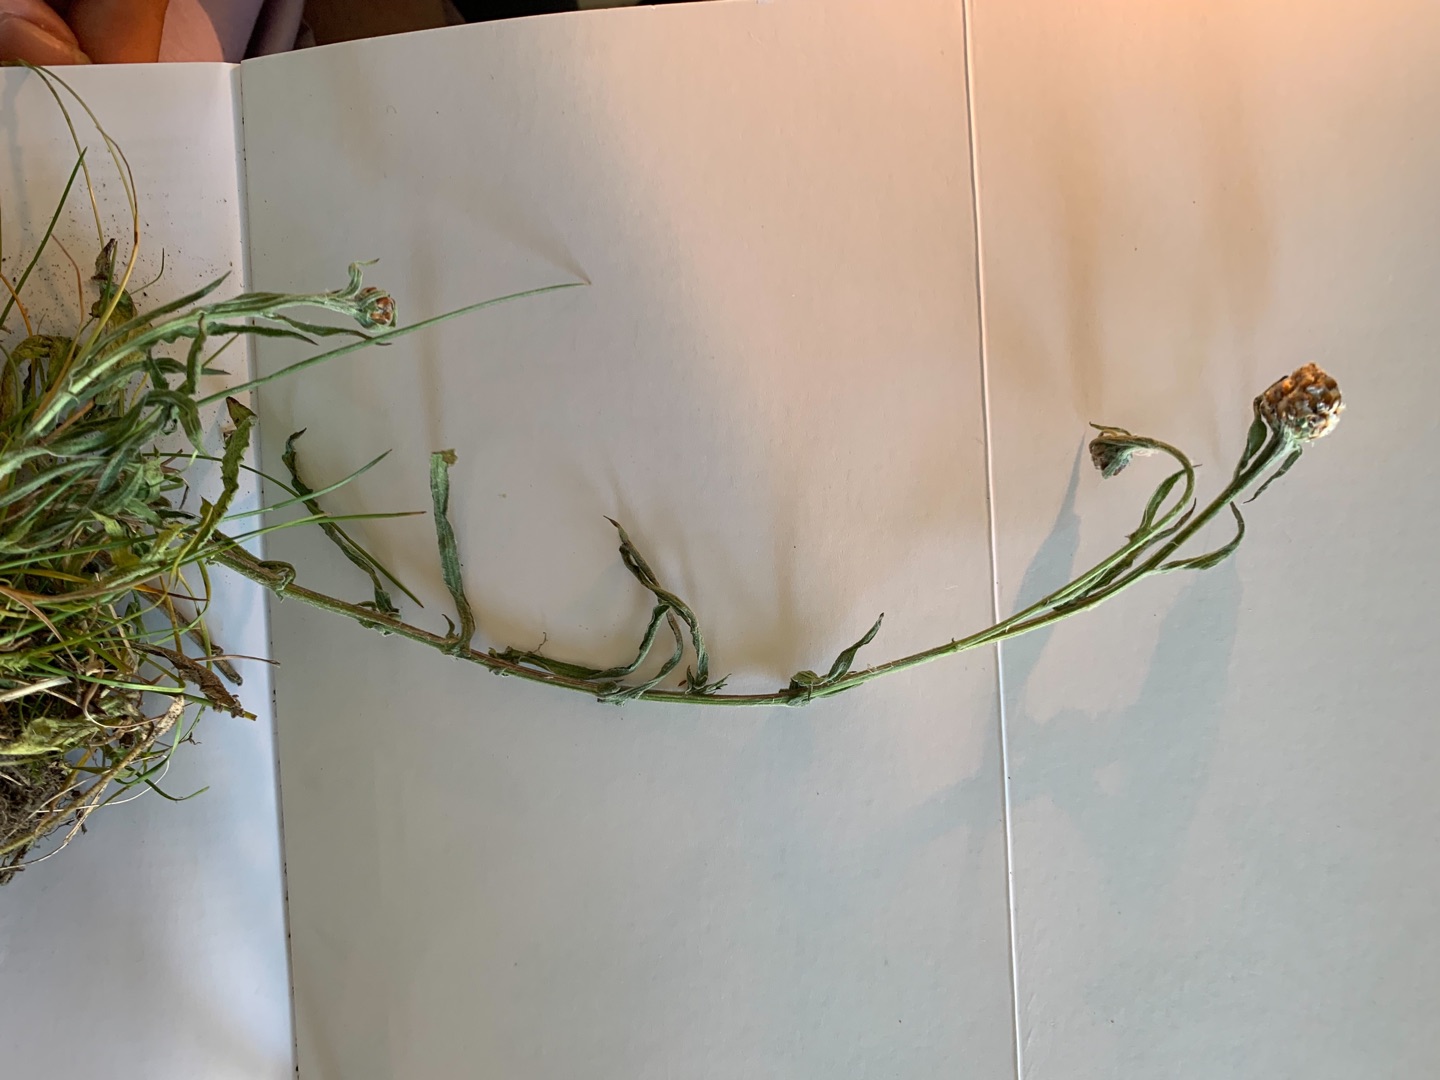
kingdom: Plantae
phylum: Tracheophyta
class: Magnoliopsida
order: Asterales
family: Asteraceae
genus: Centaurea
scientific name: Centaurea jacea
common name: Almindelig knopurt
